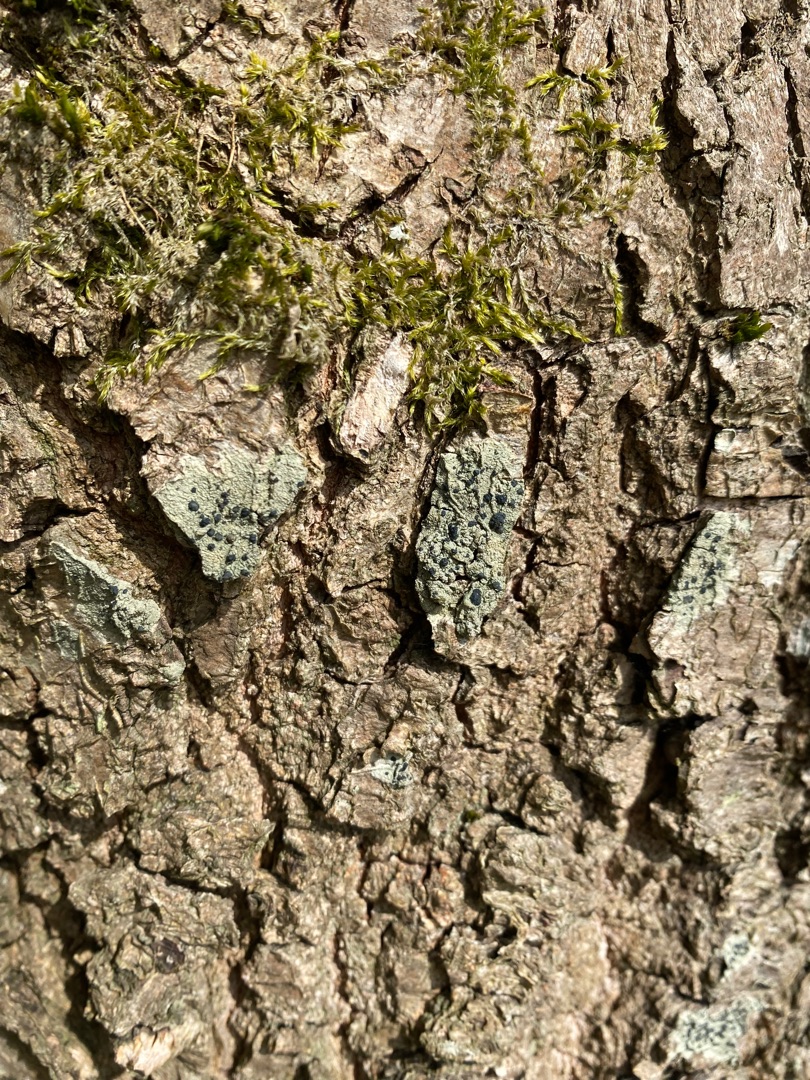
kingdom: Fungi
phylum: Ascomycota
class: Lecanoromycetes
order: Lecanorales
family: Lecanoraceae
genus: Lecidella
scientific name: Lecidella elaeochroma
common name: Grågrøn skivelav
